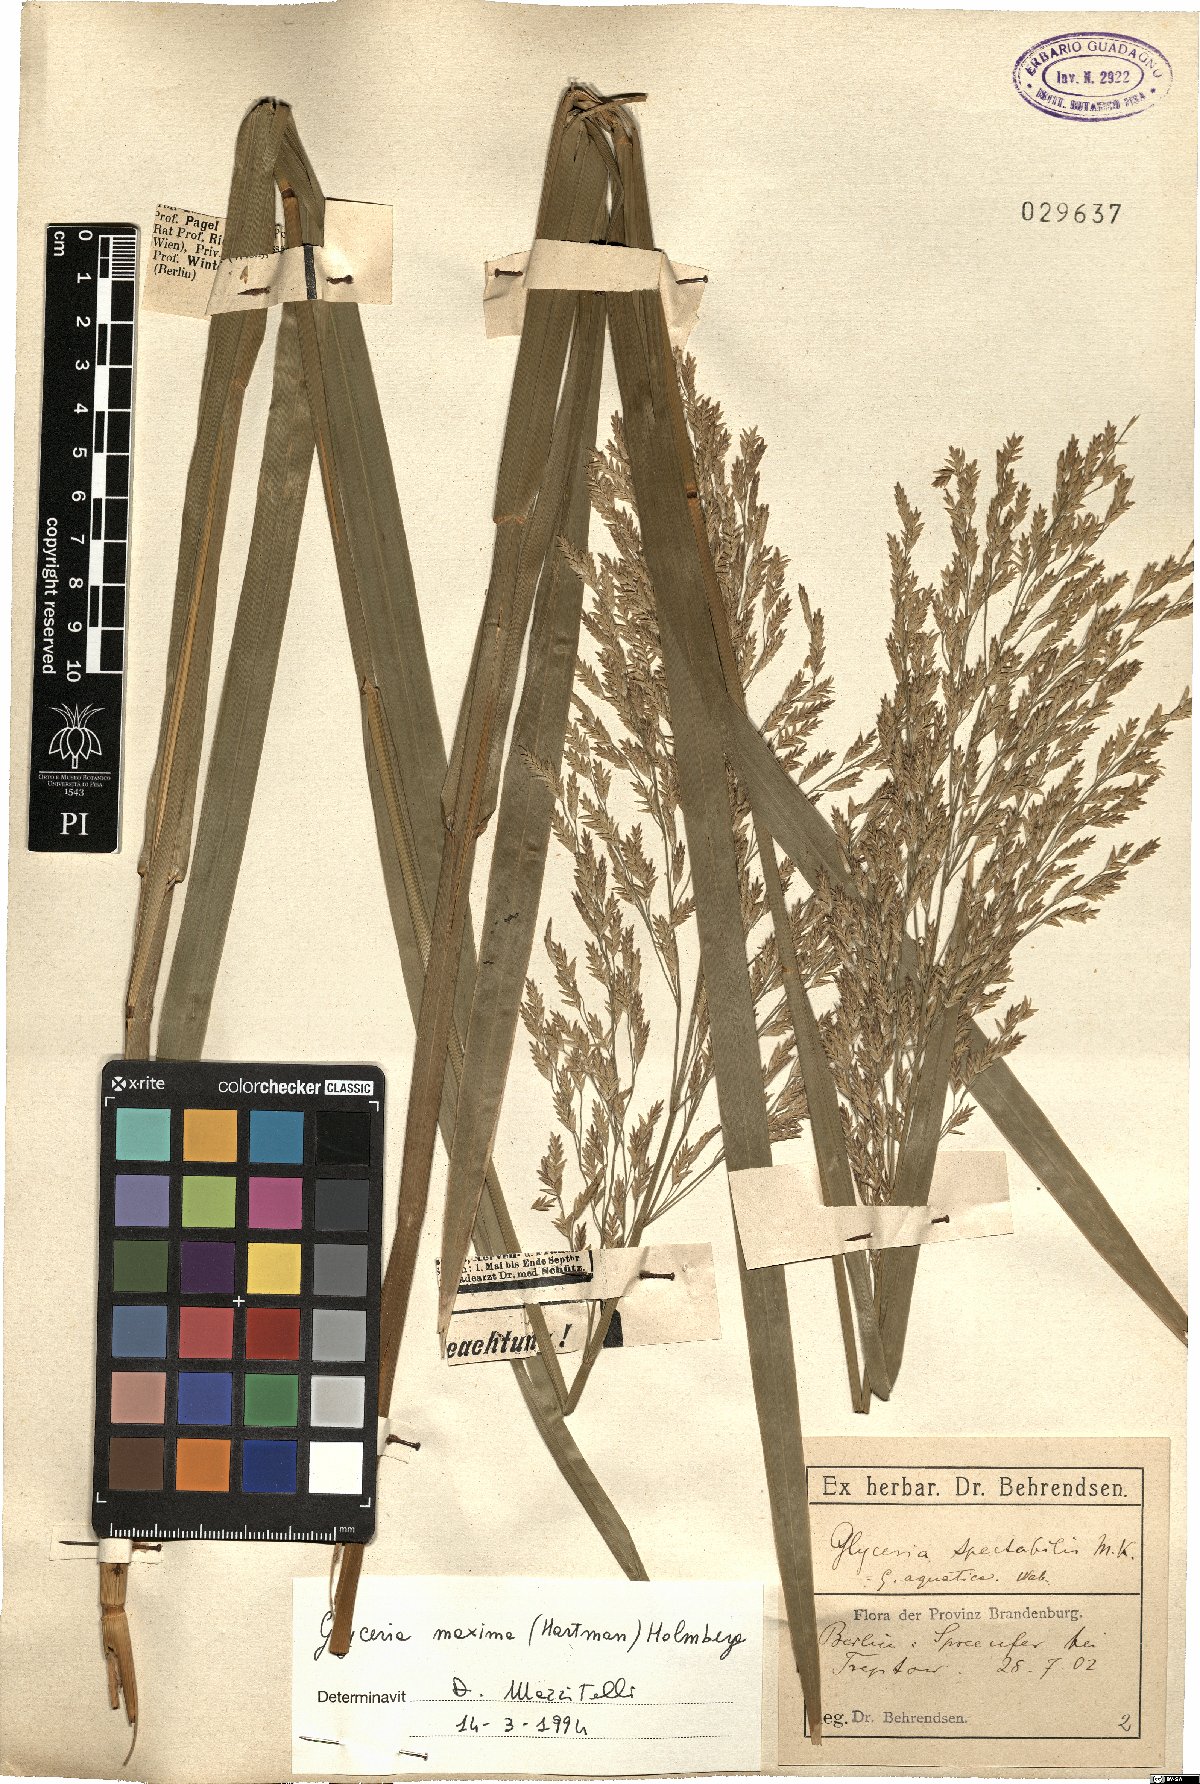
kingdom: Plantae
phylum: Tracheophyta
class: Liliopsida
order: Poales
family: Poaceae
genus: Glyceria
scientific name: Glyceria maxima
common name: Reed mannagrass
